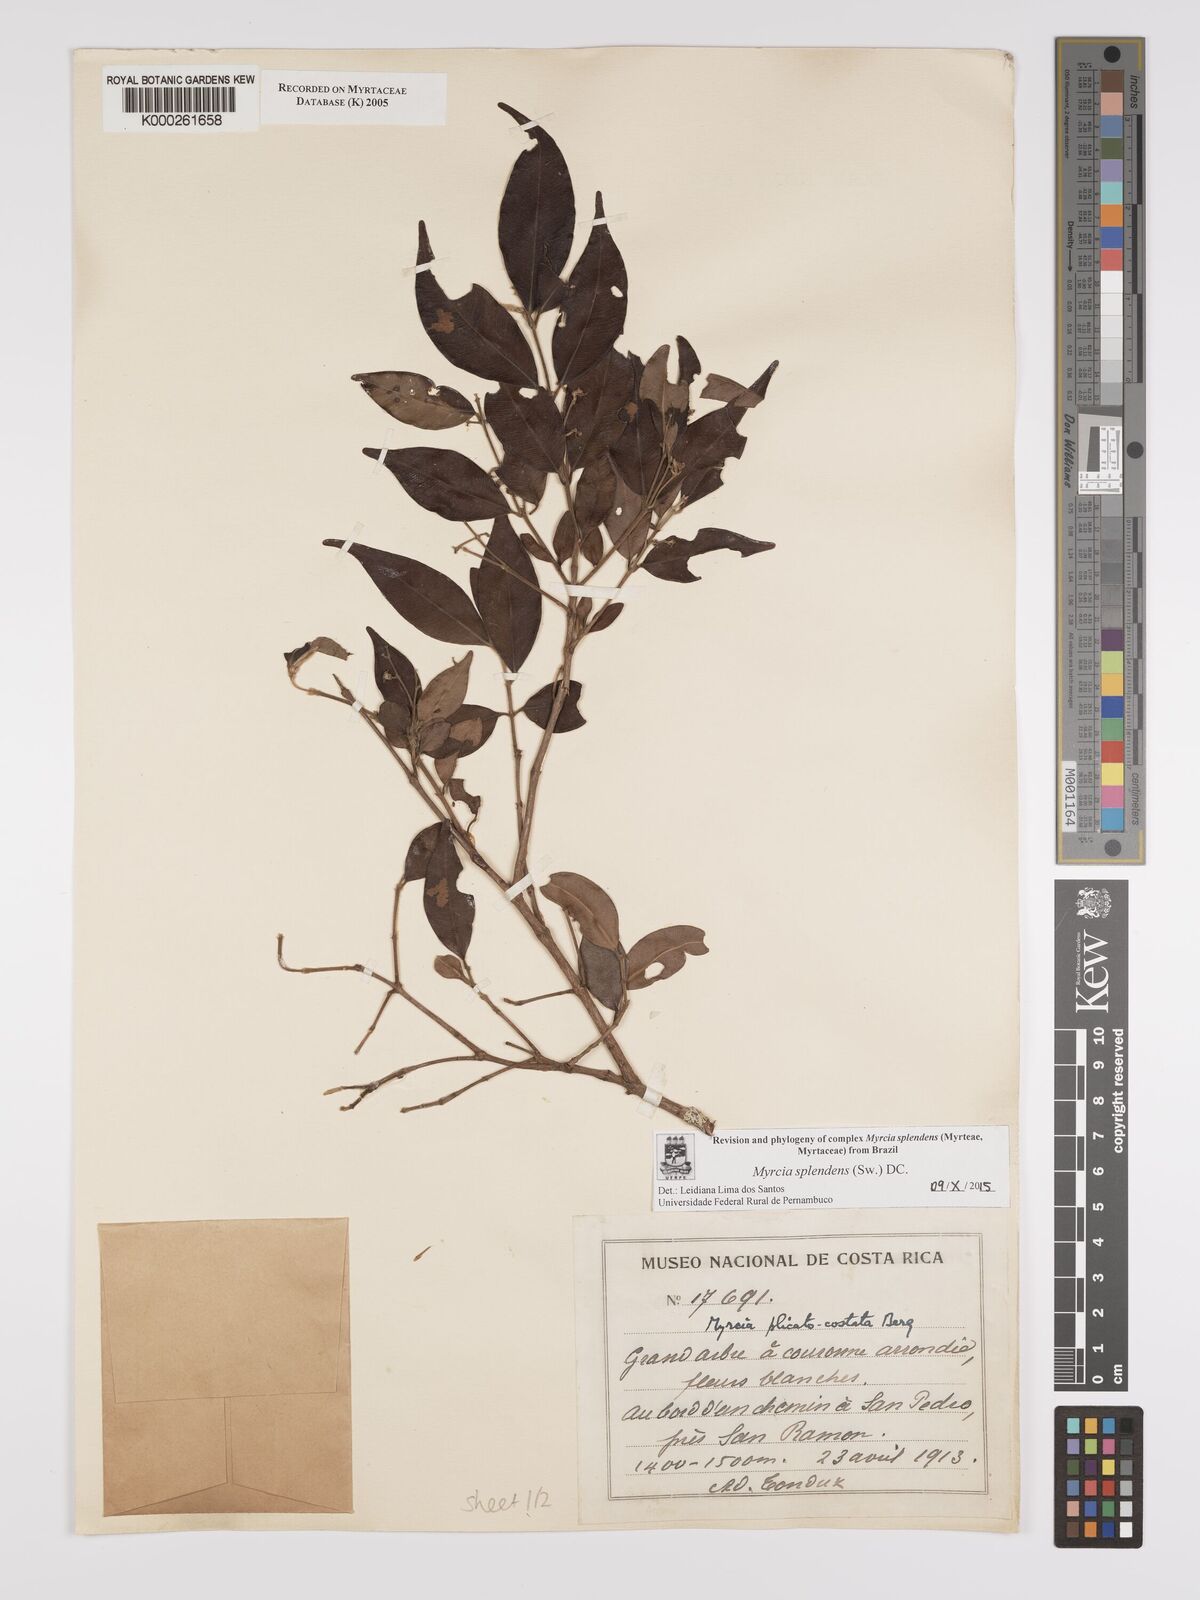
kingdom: Plantae
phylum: Tracheophyta
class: Magnoliopsida
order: Myrtales
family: Myrtaceae
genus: Myrcia
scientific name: Myrcia splendens
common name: Surinam cherry
